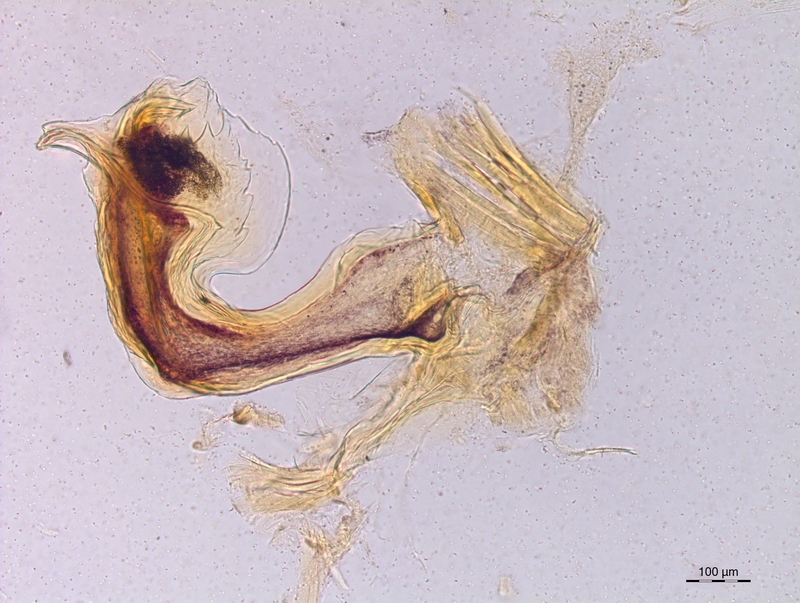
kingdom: Animalia
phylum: Arthropoda
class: Diplopoda
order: Chordeumatida
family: Craspedosomatidae
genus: Craspedosoma
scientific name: Craspedosoma taurinorum
